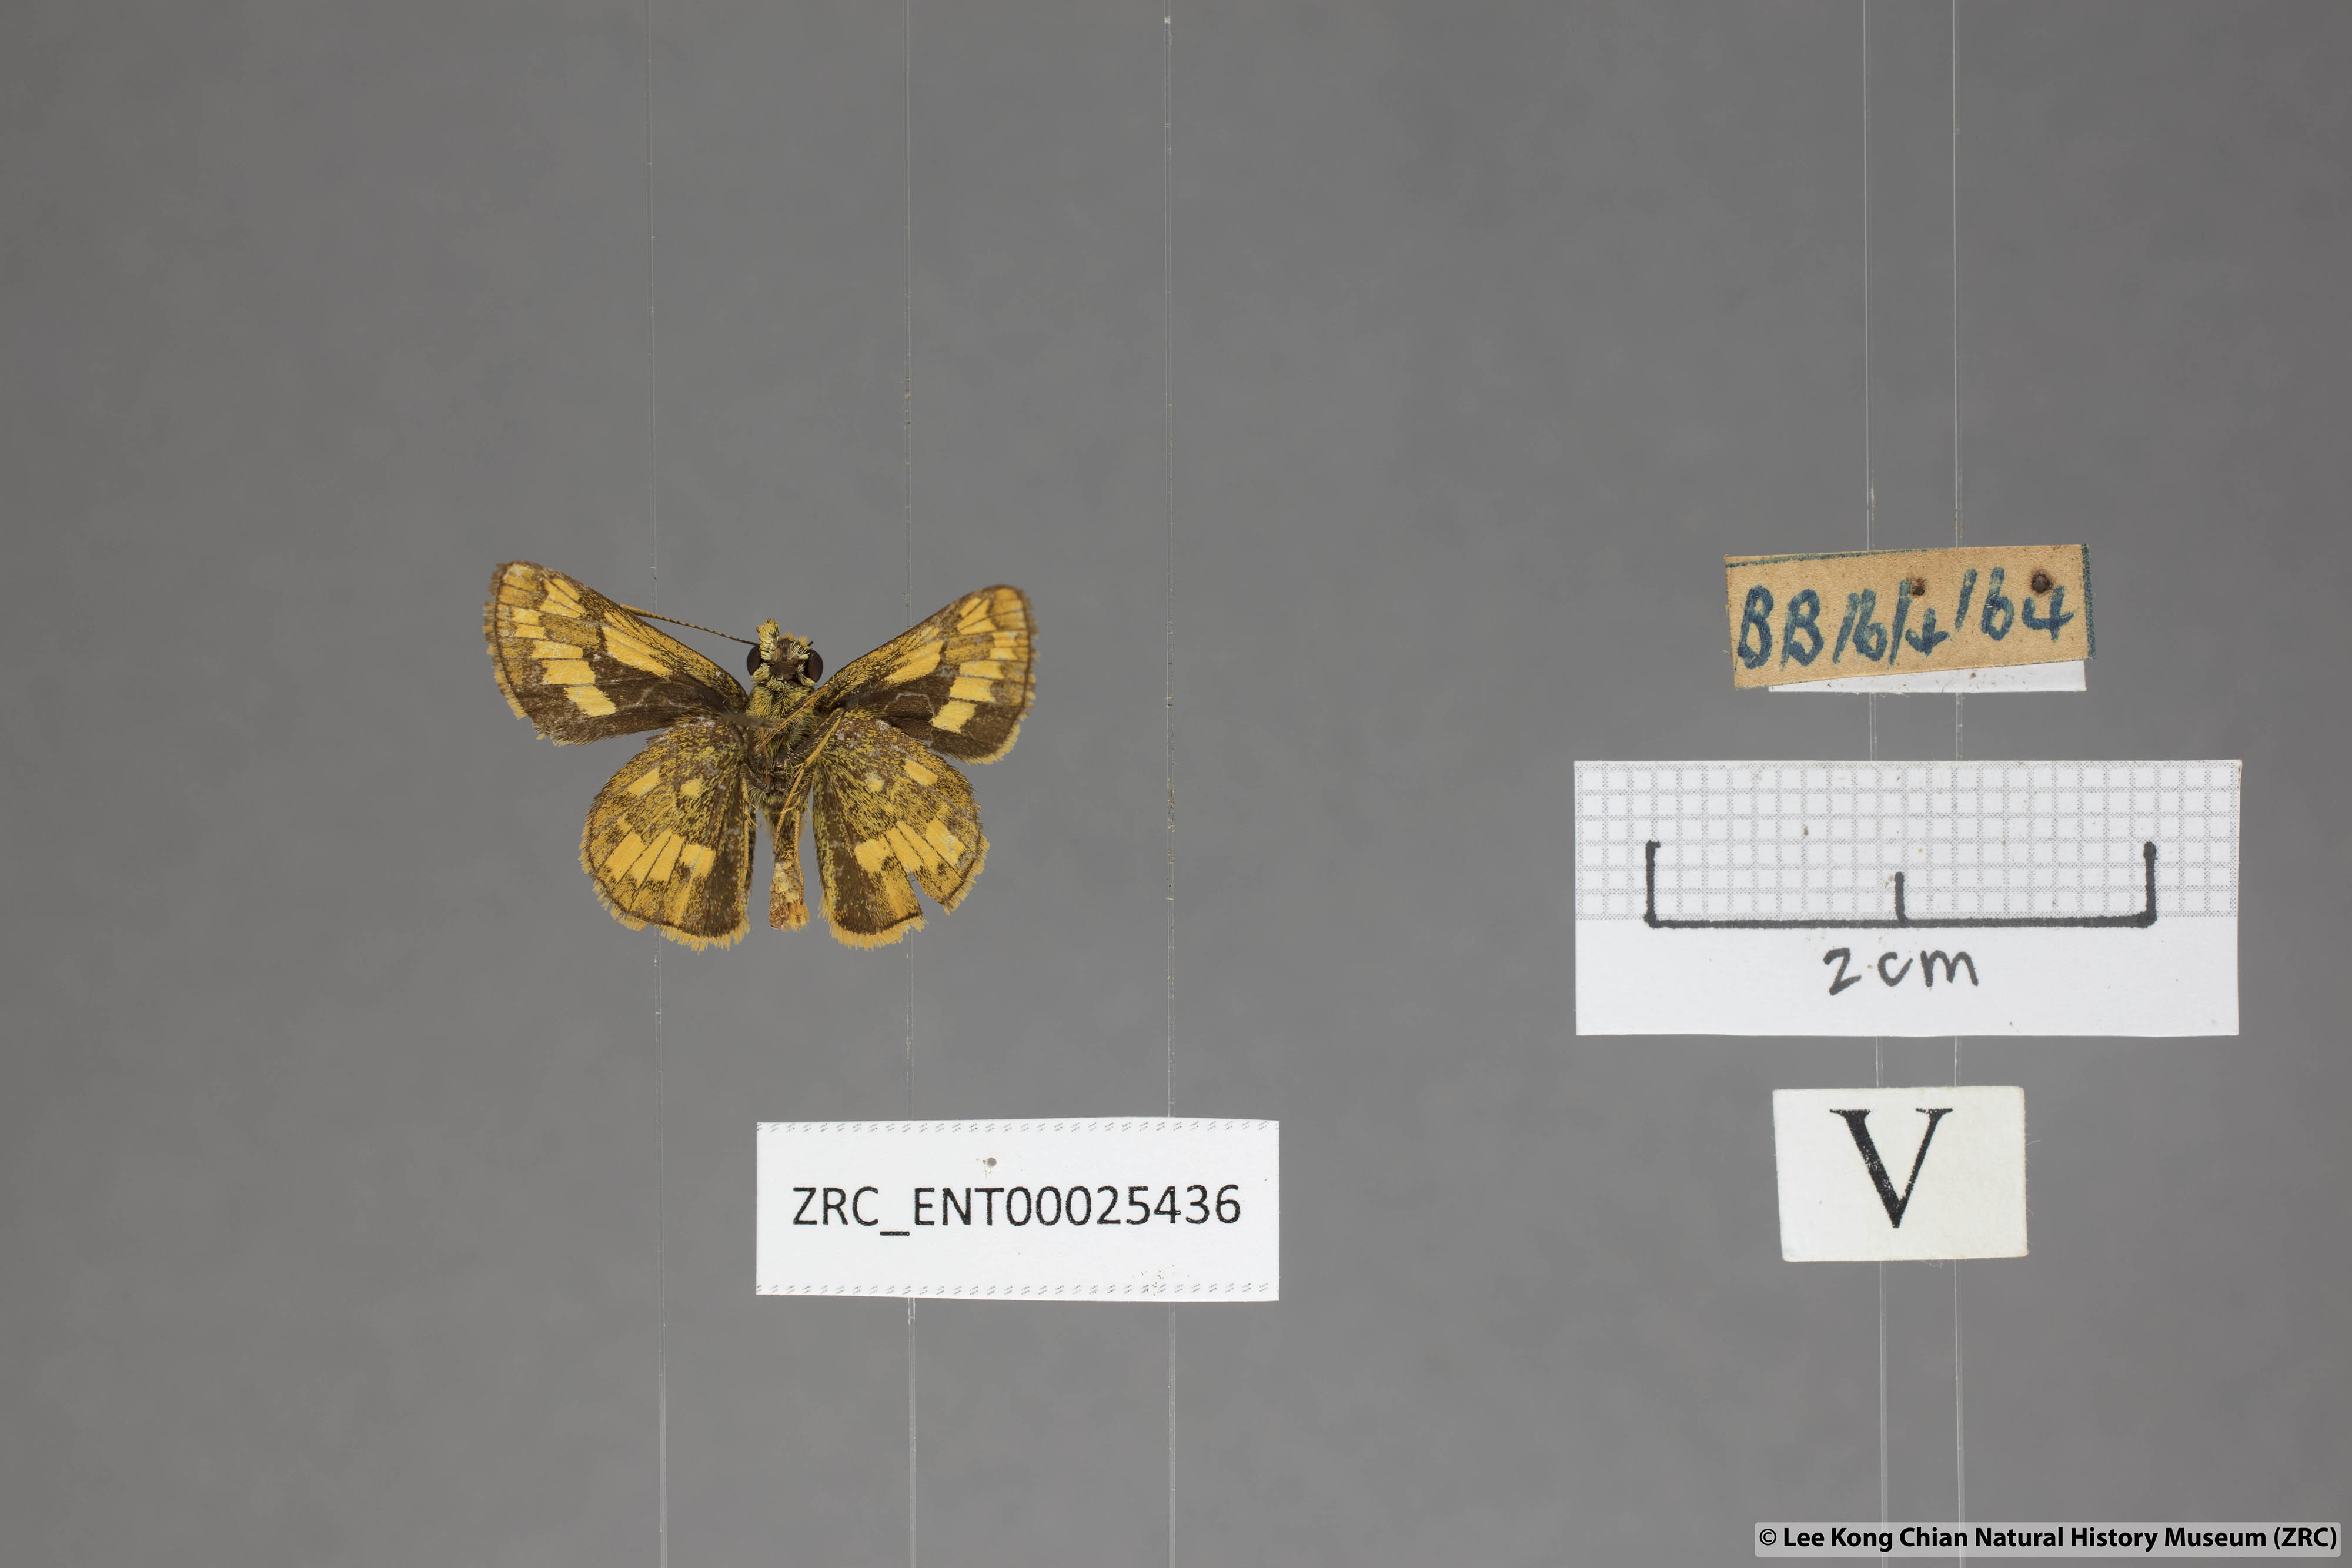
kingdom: Animalia
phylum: Arthropoda
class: Insecta
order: Lepidoptera
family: Hesperiidae
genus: Potanthus
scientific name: Potanthus omaha
